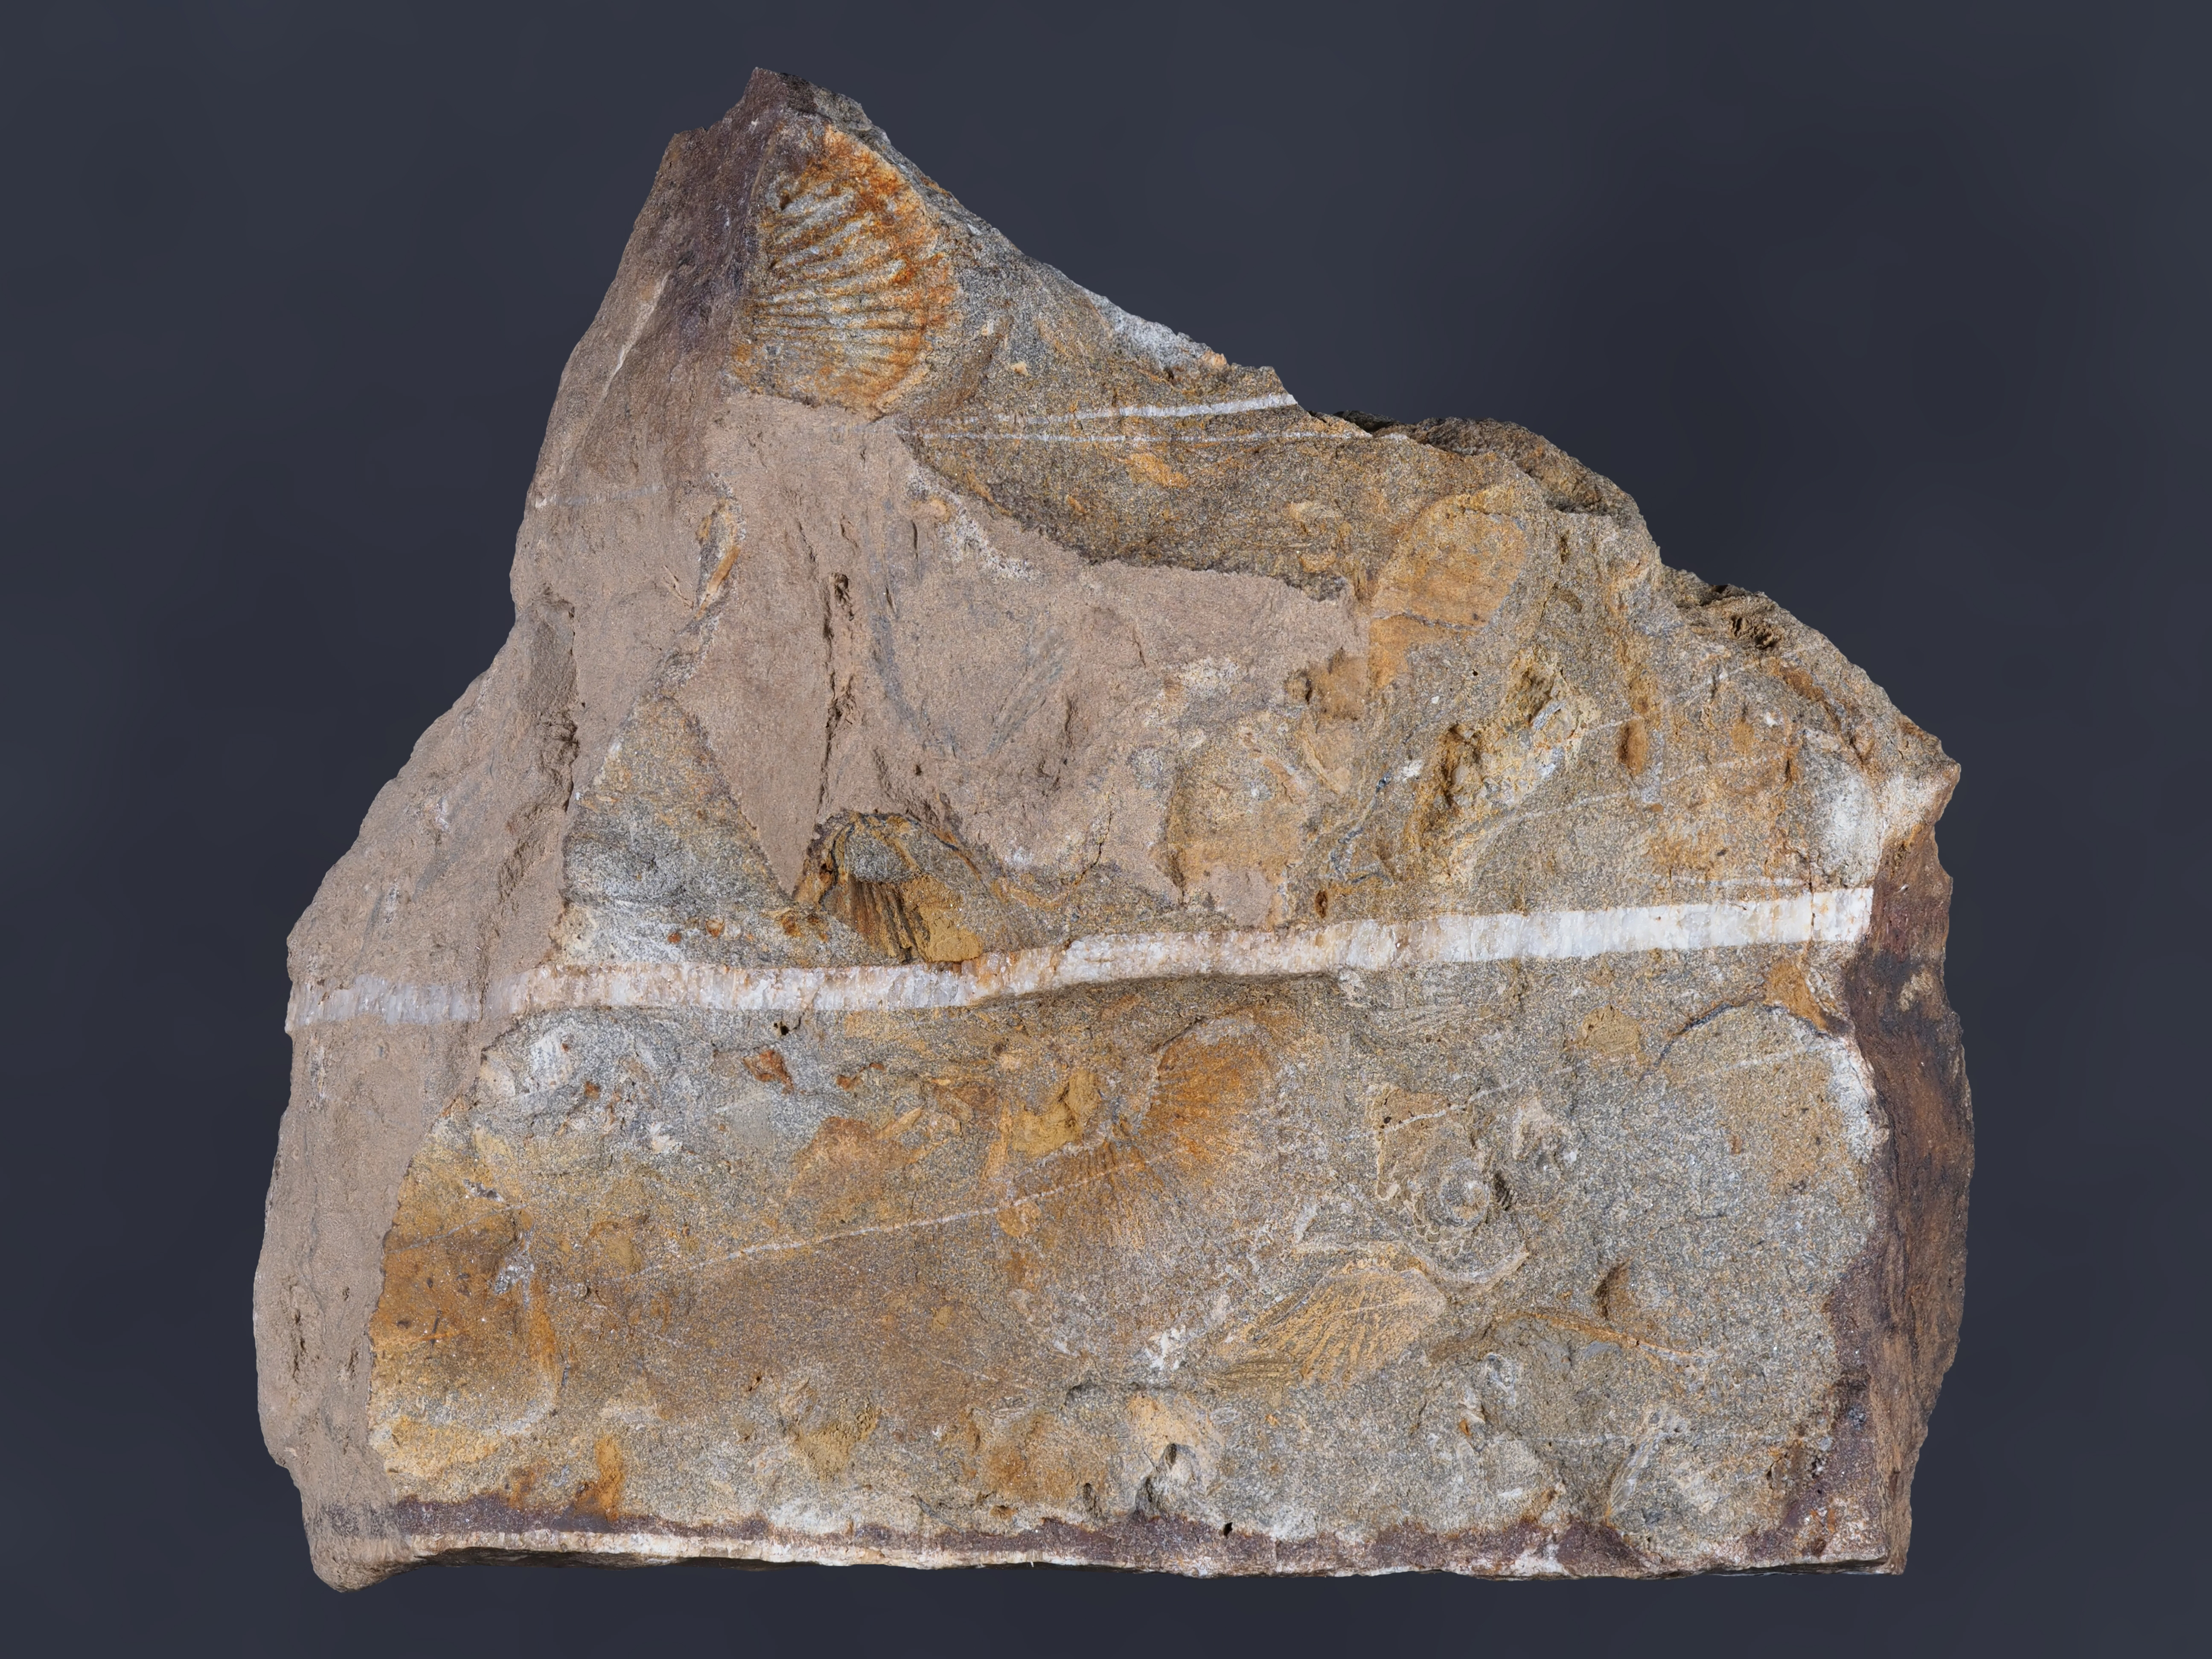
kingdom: Animalia
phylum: Brachiopoda
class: Rhynchonellata
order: Terebratulida
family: Tropidoleptidae
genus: Tropidoleptus
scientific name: Tropidoleptus
